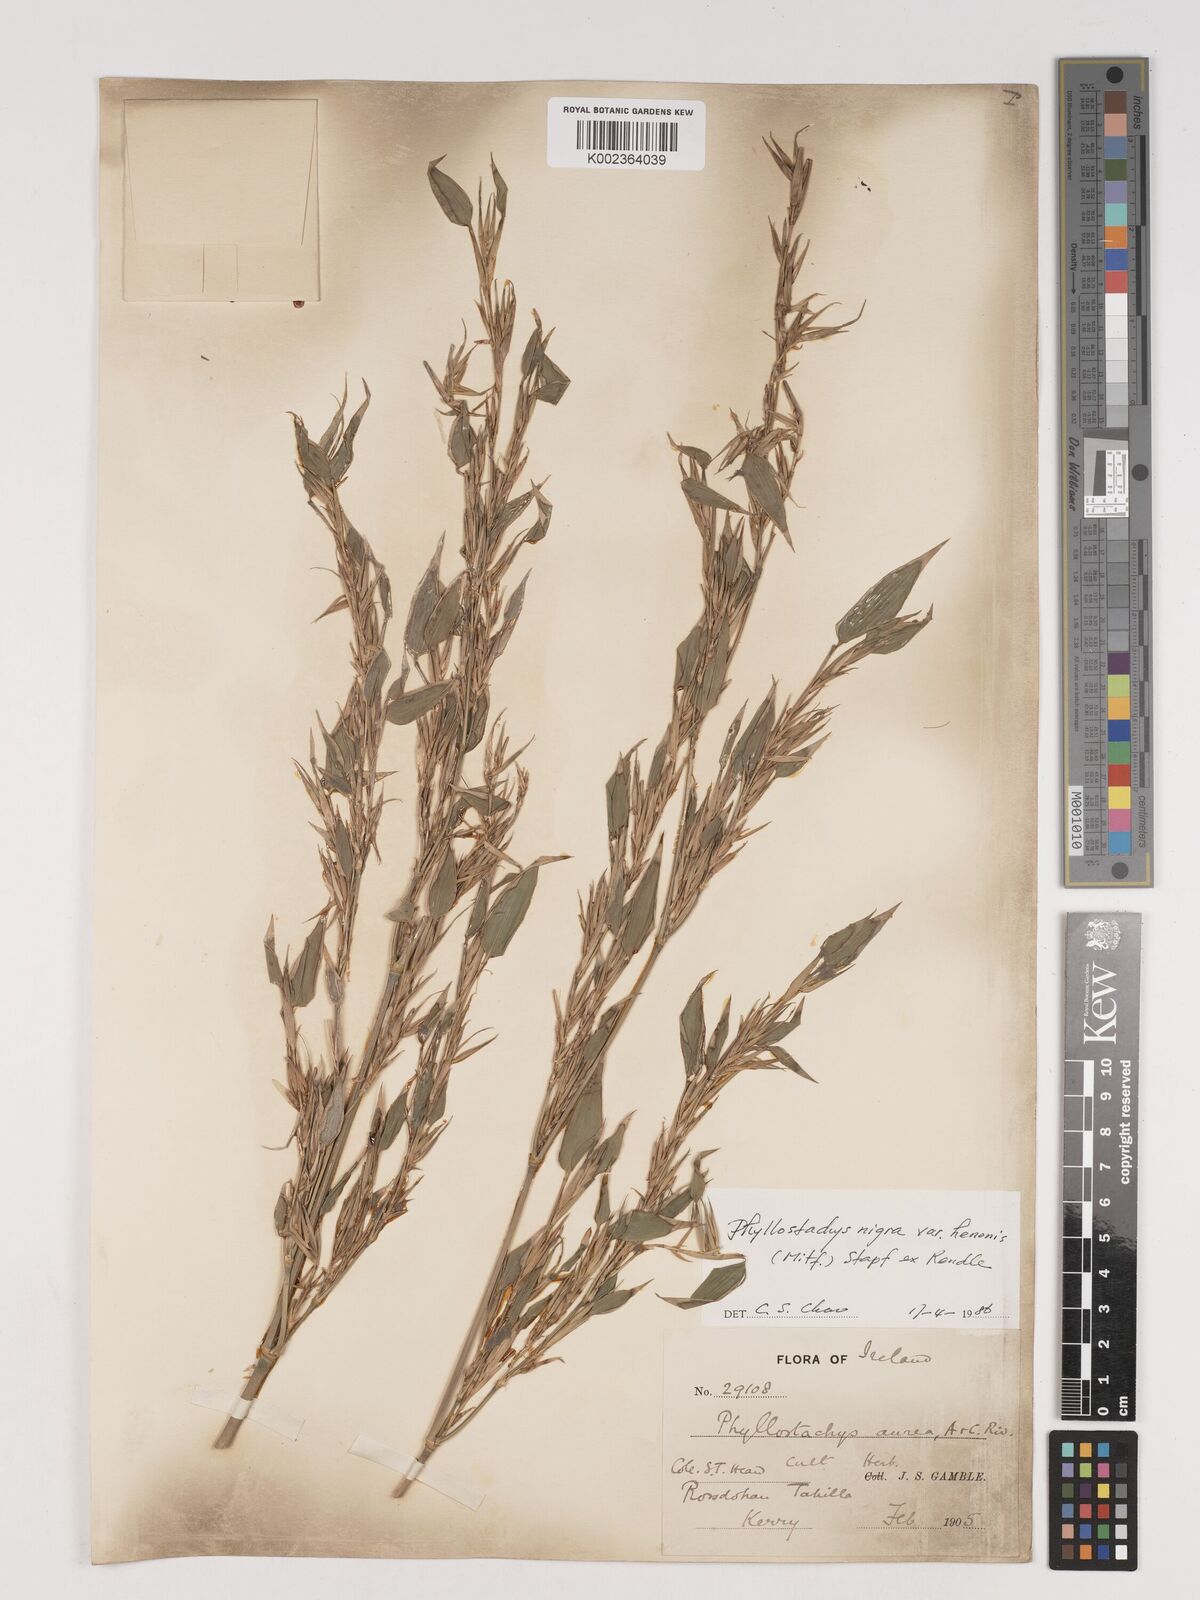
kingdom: Plantae
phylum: Tracheophyta
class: Liliopsida
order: Poales
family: Poaceae
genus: Phyllostachys
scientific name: Phyllostachys nigra
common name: Black bamboo
